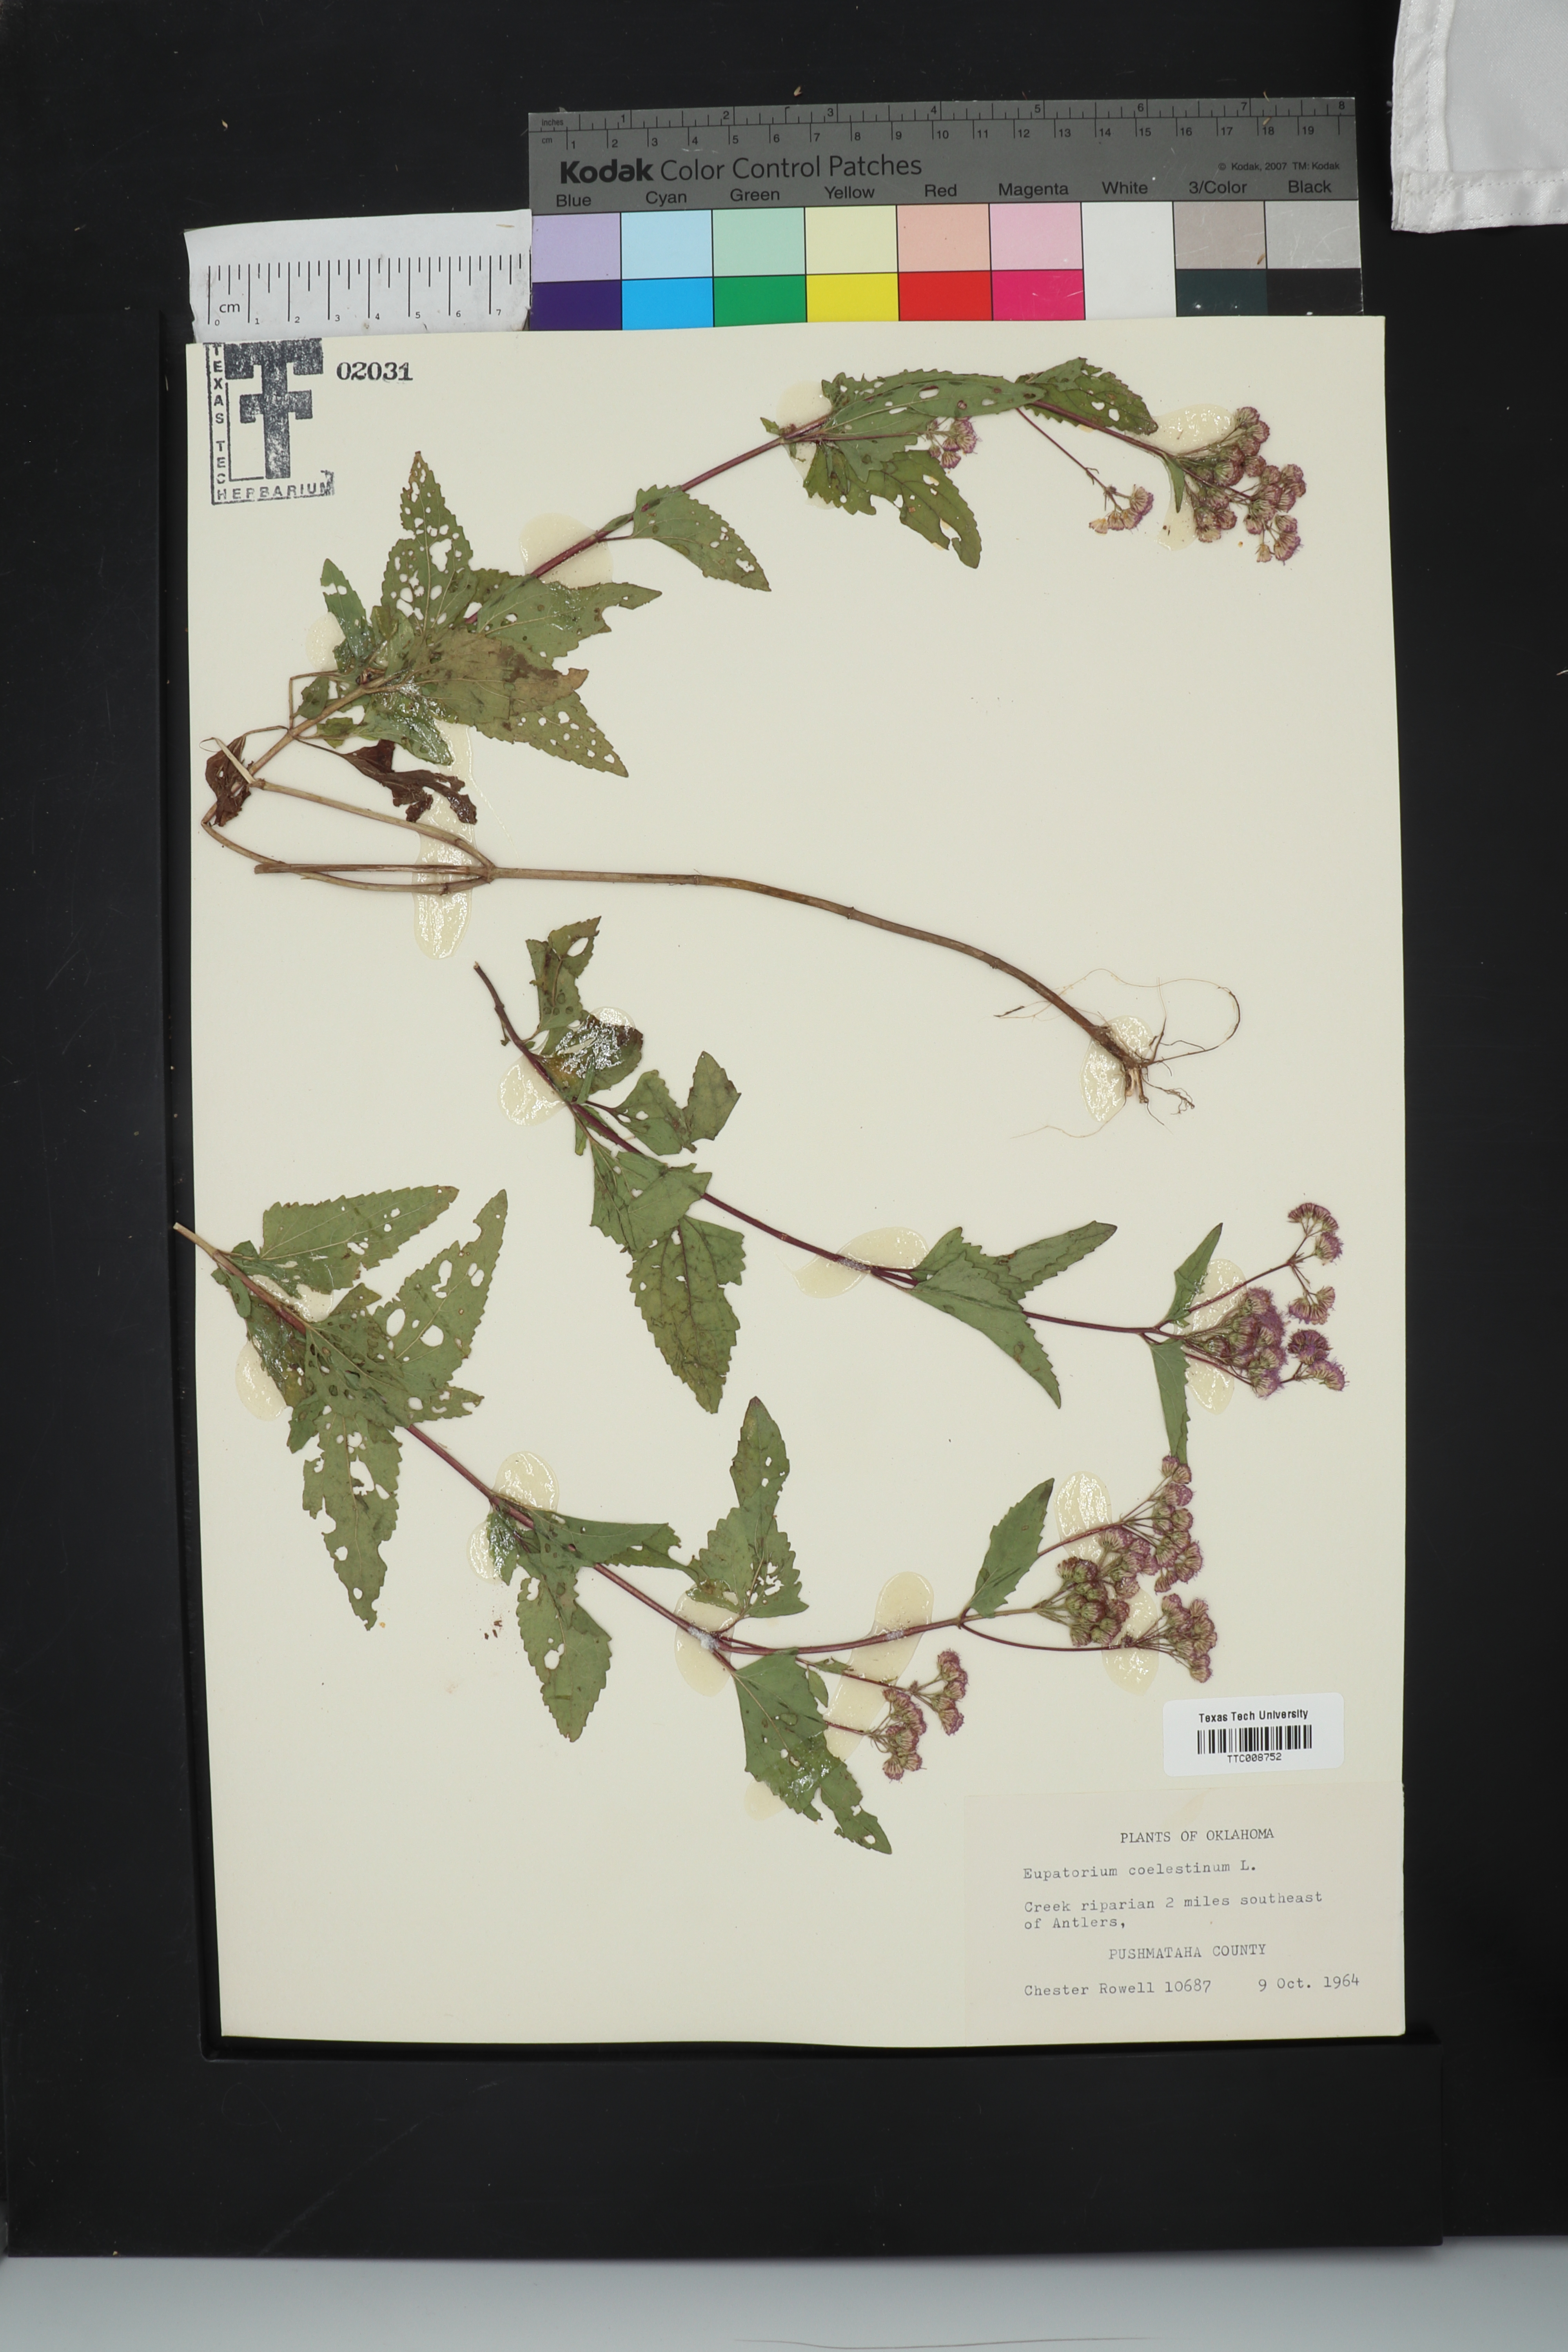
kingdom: Plantae
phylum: Tracheophyta
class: Magnoliopsida
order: Asterales
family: Asteraceae
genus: Conoclinium
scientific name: Conoclinium coelestinum
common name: Blue mistflower
